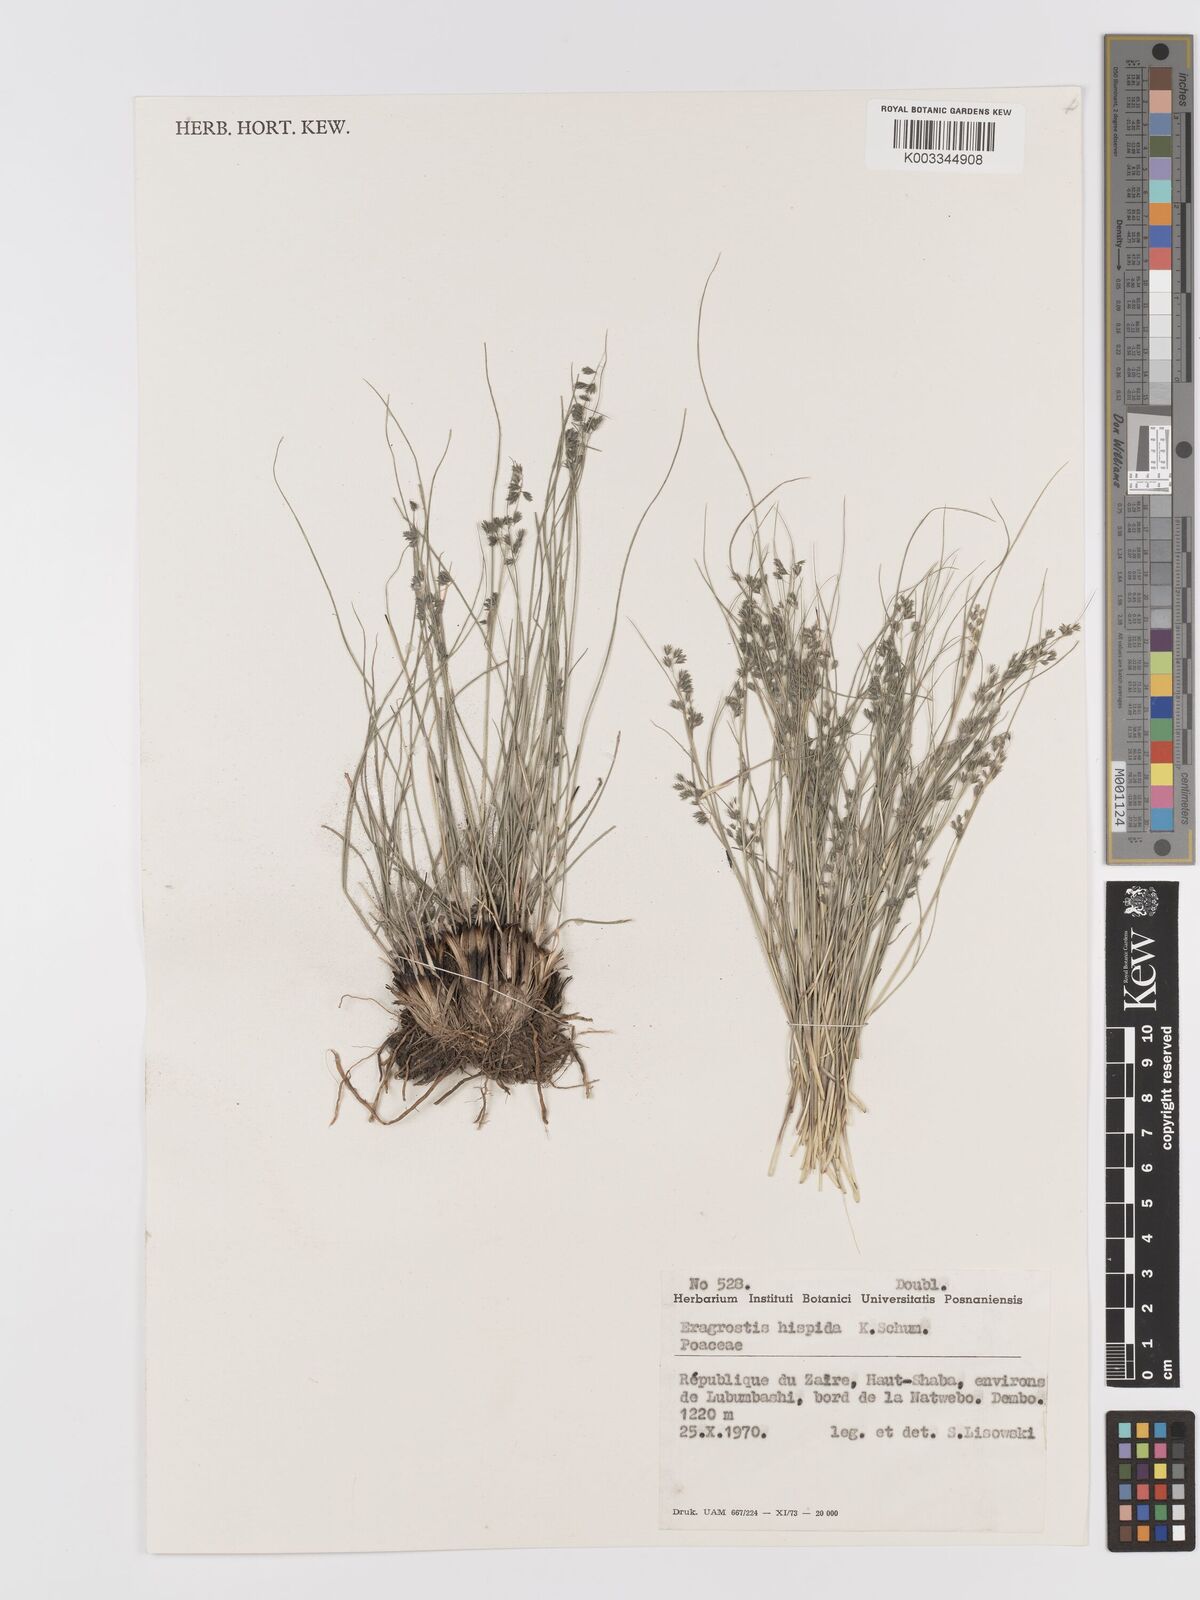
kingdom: Plantae
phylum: Tracheophyta
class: Liliopsida
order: Poales
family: Poaceae
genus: Eragrostis
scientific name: Eragrostis hispida
